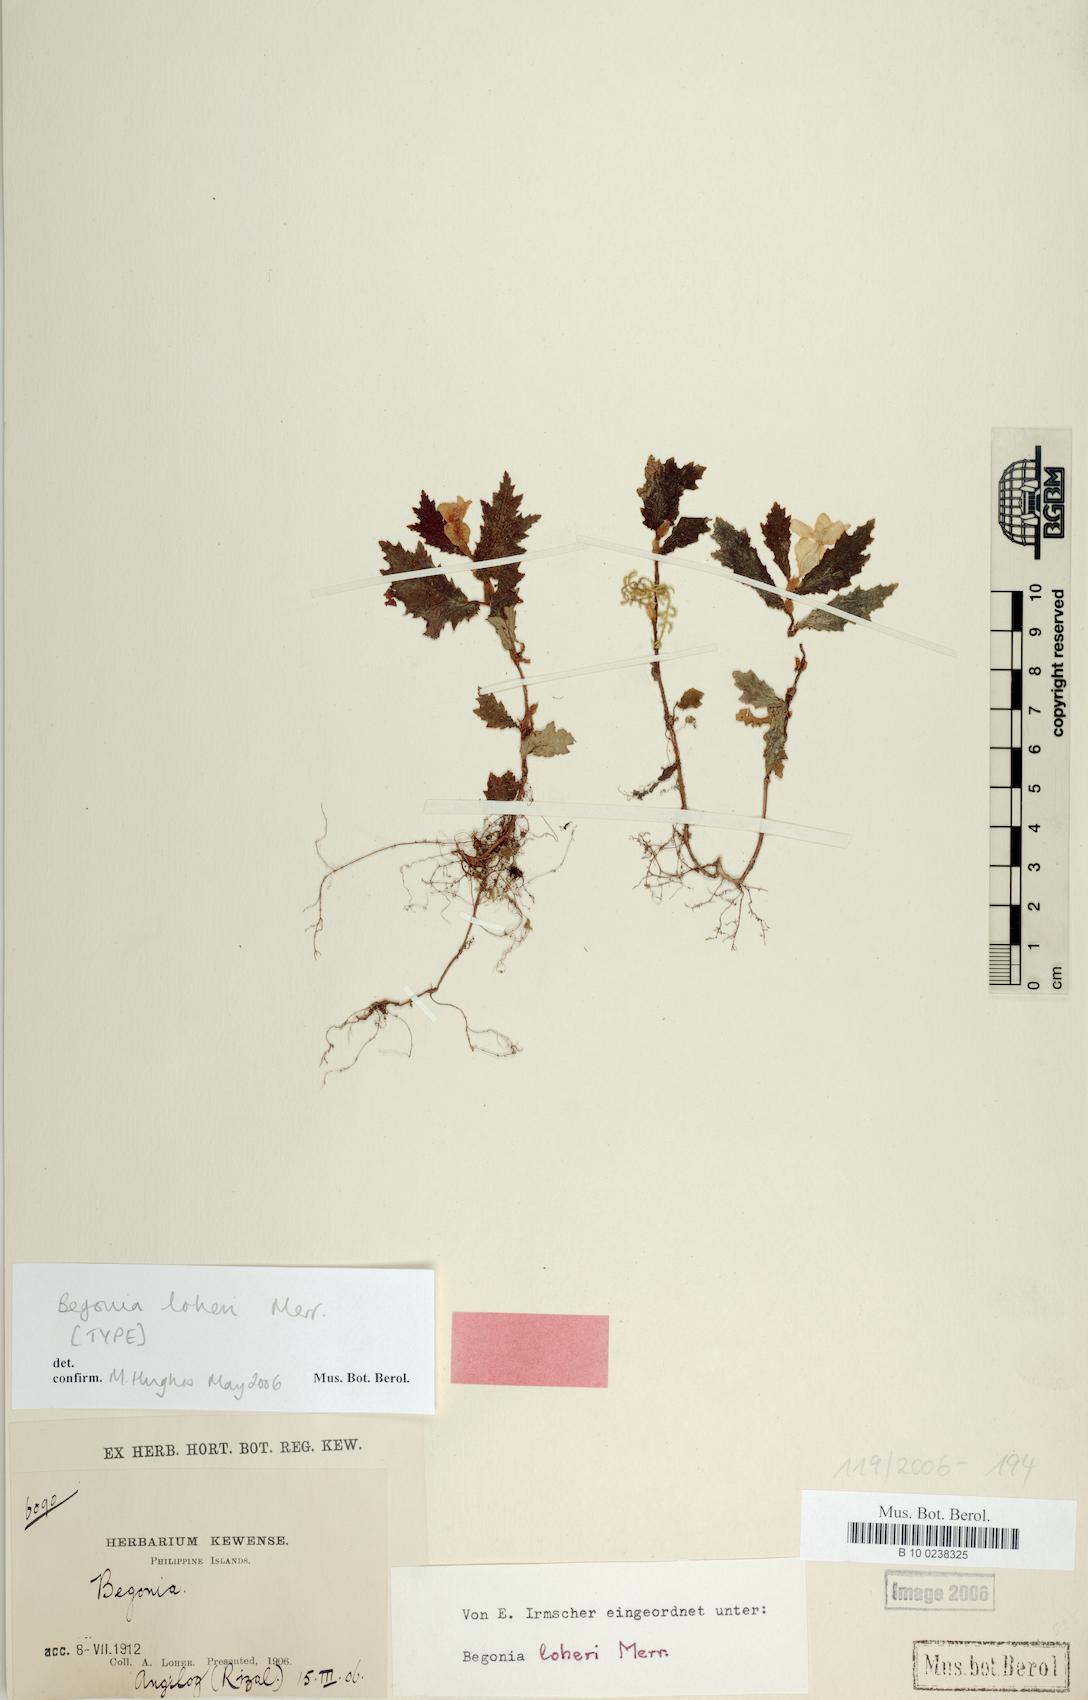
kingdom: Plantae
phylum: Tracheophyta
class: Magnoliopsida
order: Cucurbitales
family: Begoniaceae
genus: Begonia
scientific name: Begonia loheri
